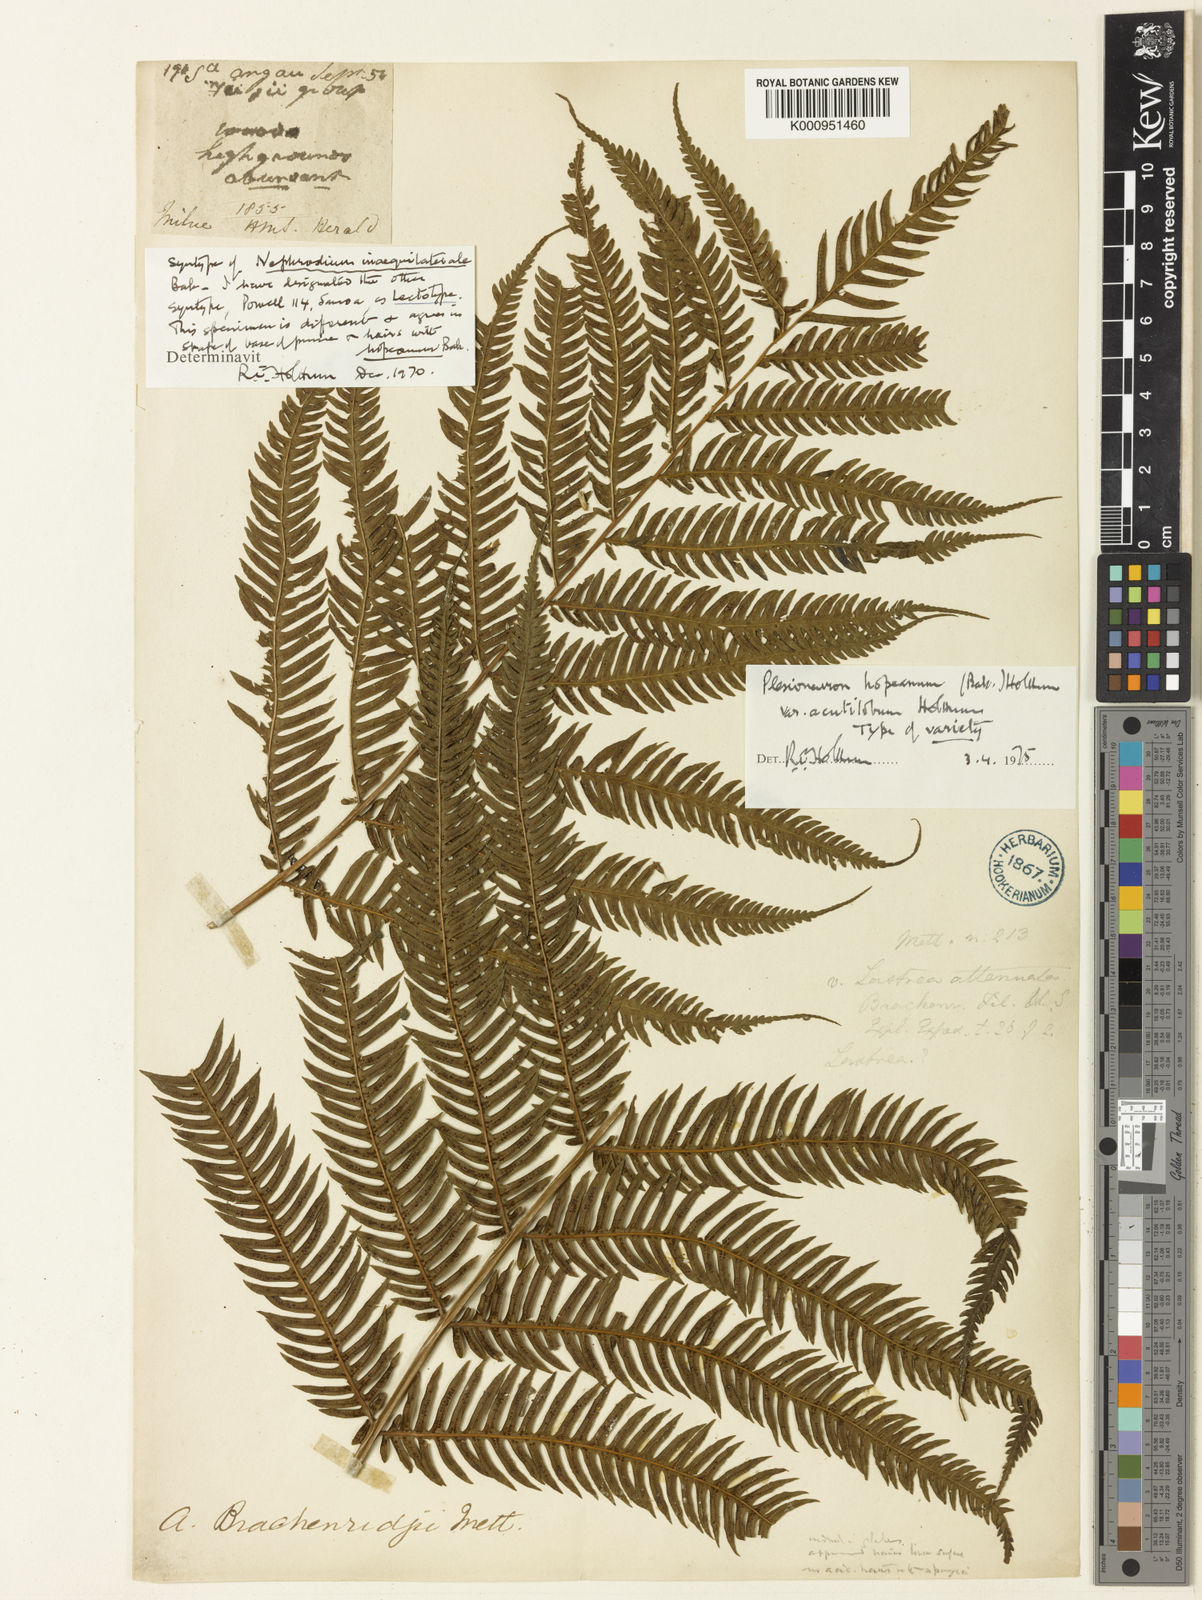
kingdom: Plantae
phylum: Tracheophyta
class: Polypodiopsida
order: Polypodiales
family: Thelypteridaceae
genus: Plesioneuron
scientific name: Plesioneuron hopeanum
